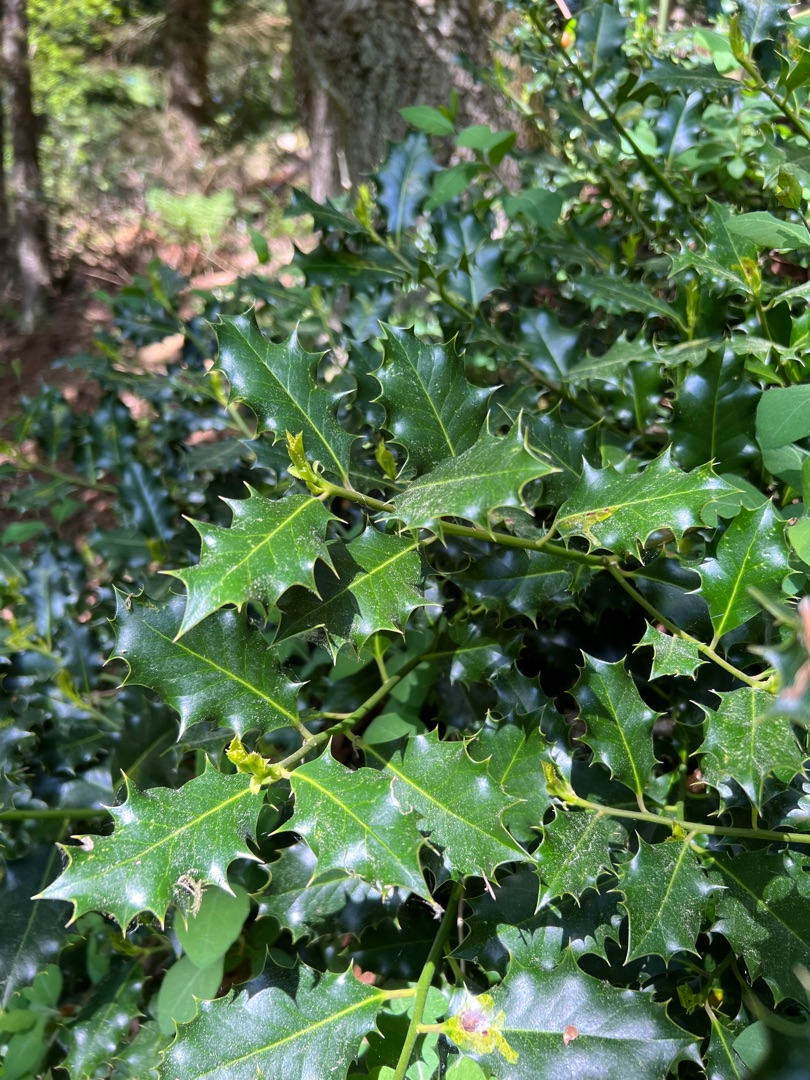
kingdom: Plantae
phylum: Tracheophyta
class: Magnoliopsida
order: Aquifoliales
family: Aquifoliaceae
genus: Ilex
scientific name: Ilex aquifolium
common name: Kristtorn
